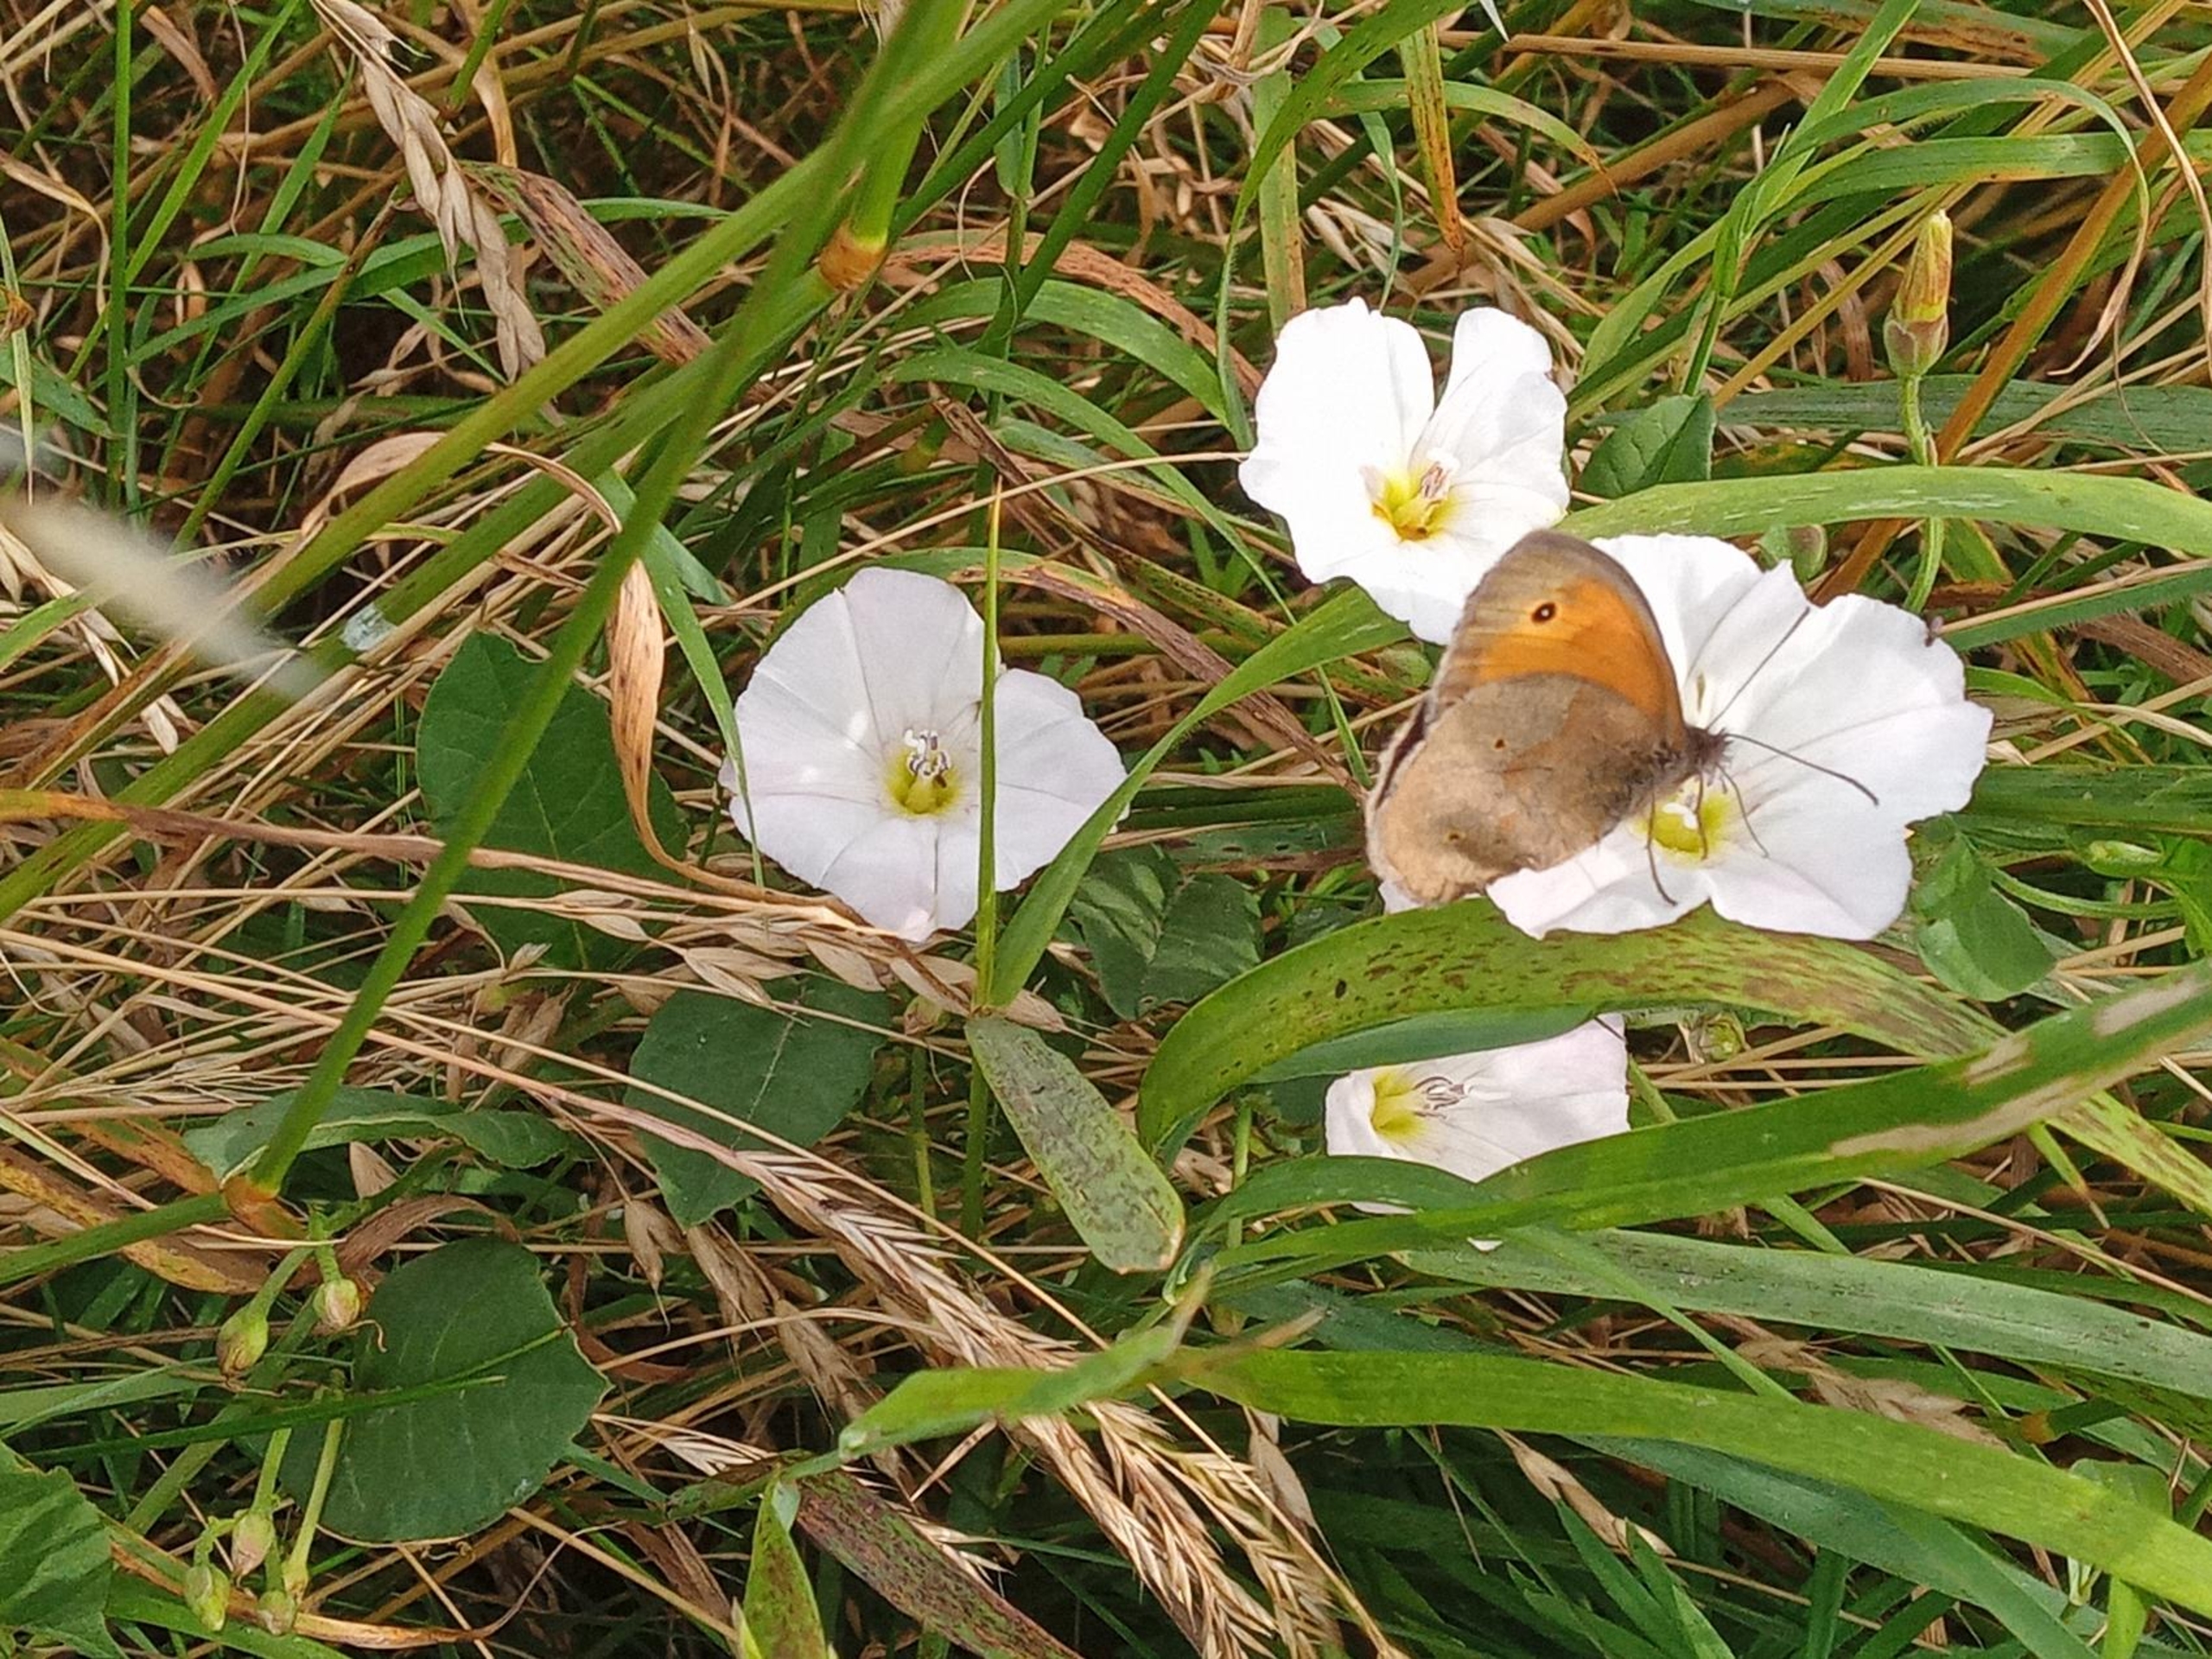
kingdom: Animalia
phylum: Arthropoda
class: Insecta
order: Lepidoptera
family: Nymphalidae
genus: Maniola
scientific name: Maniola jurtina
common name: Græsrandøje
